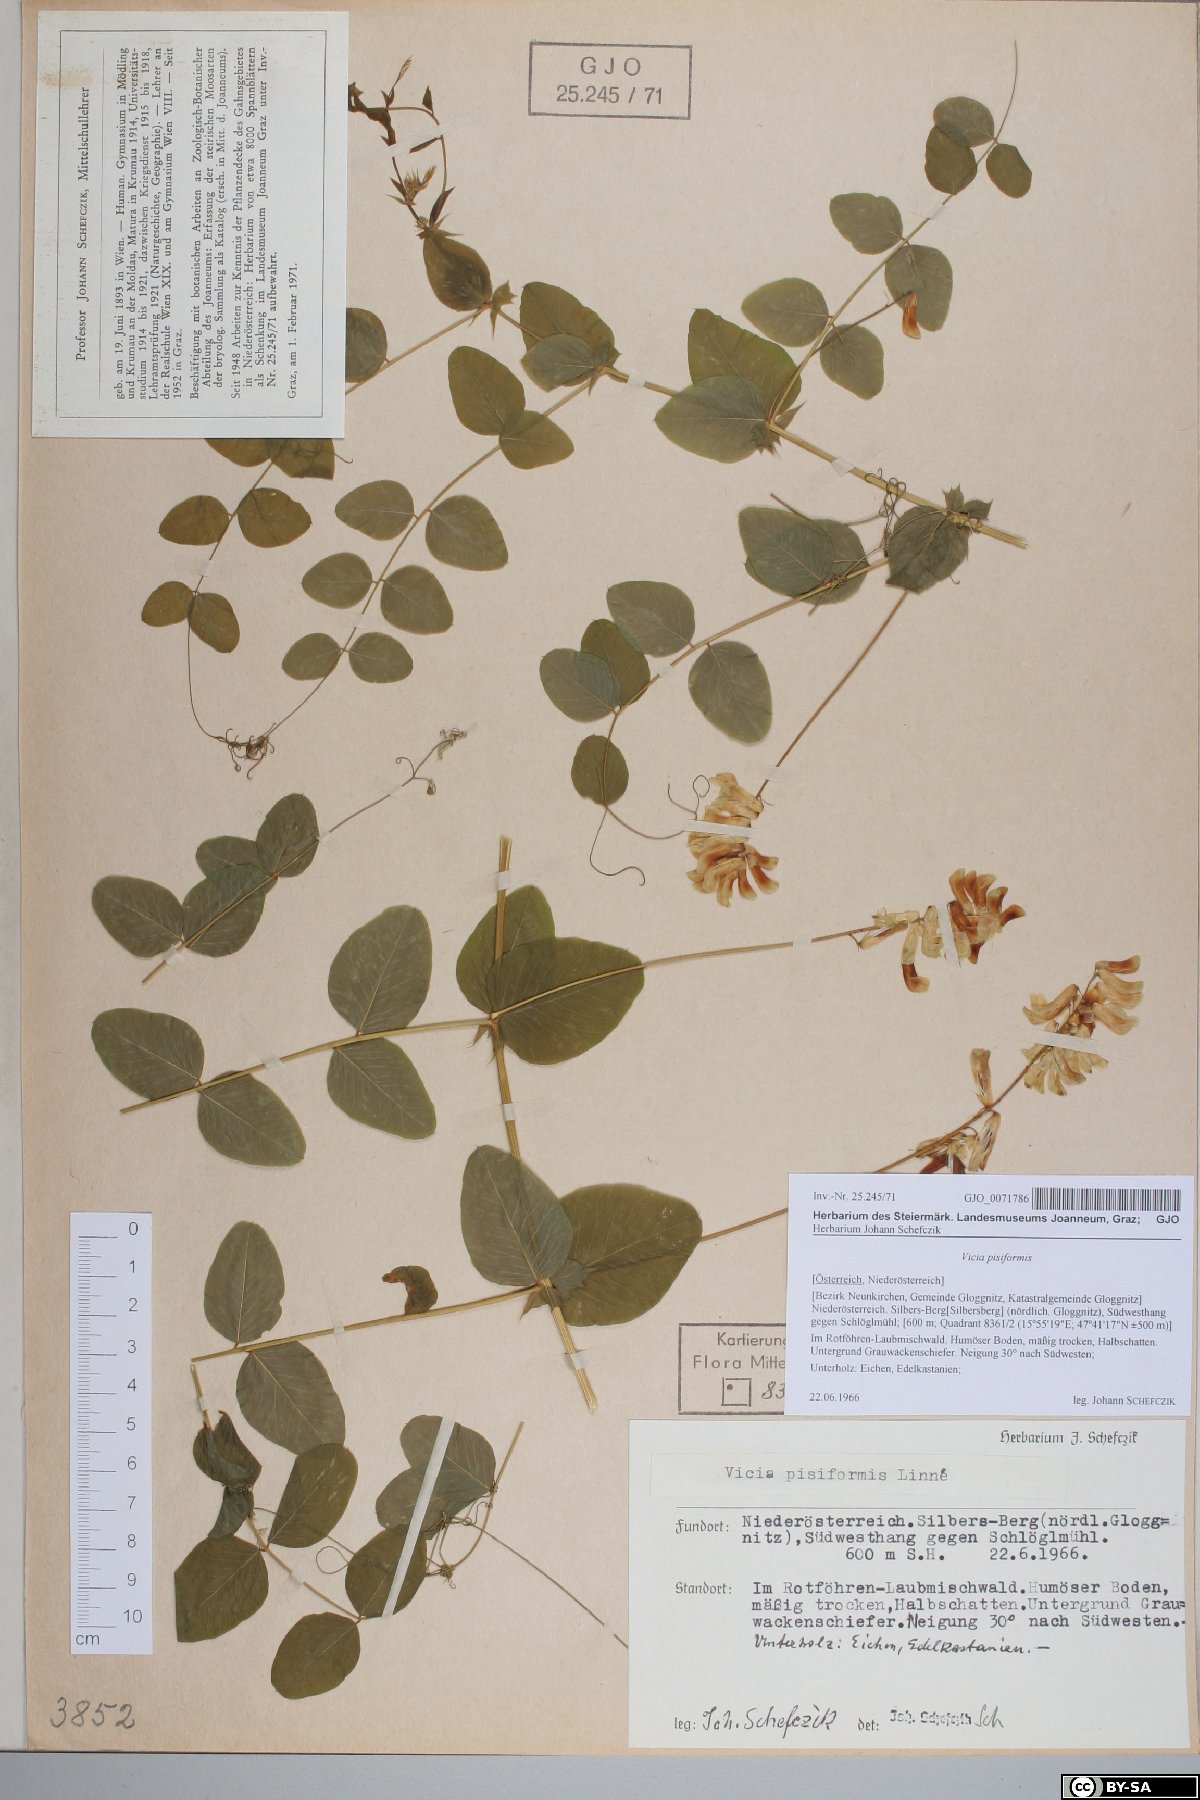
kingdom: Plantae
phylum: Tracheophyta
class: Magnoliopsida
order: Fabales
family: Fabaceae
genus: Vicia
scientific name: Vicia pisiformis
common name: Pale-flower vetch
